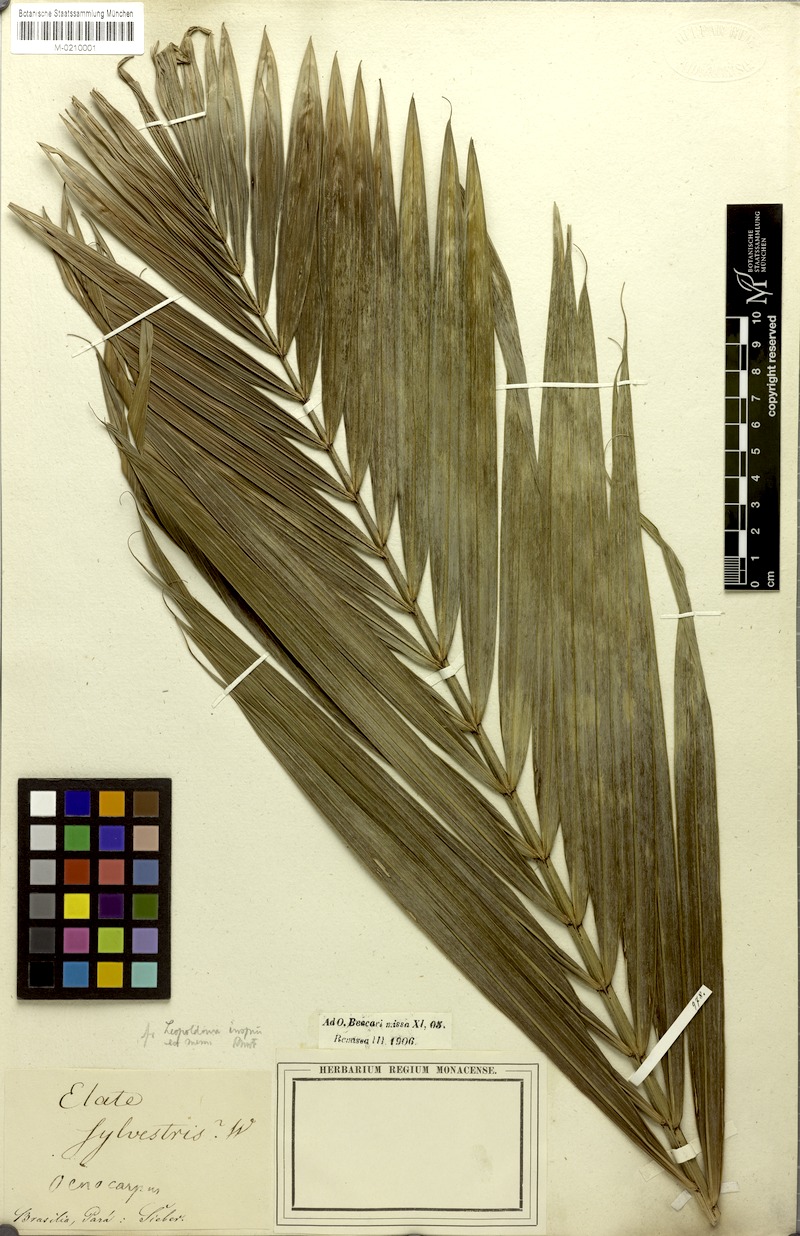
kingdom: Plantae
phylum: Tracheophyta
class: Liliopsida
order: Arecales
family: Arecaceae
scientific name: Arecaceae
